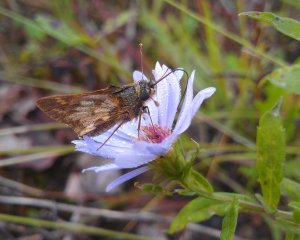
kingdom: Animalia
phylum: Arthropoda
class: Insecta
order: Lepidoptera
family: Hesperiidae
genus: Polites
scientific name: Polites coras
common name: Peck's Skipper
